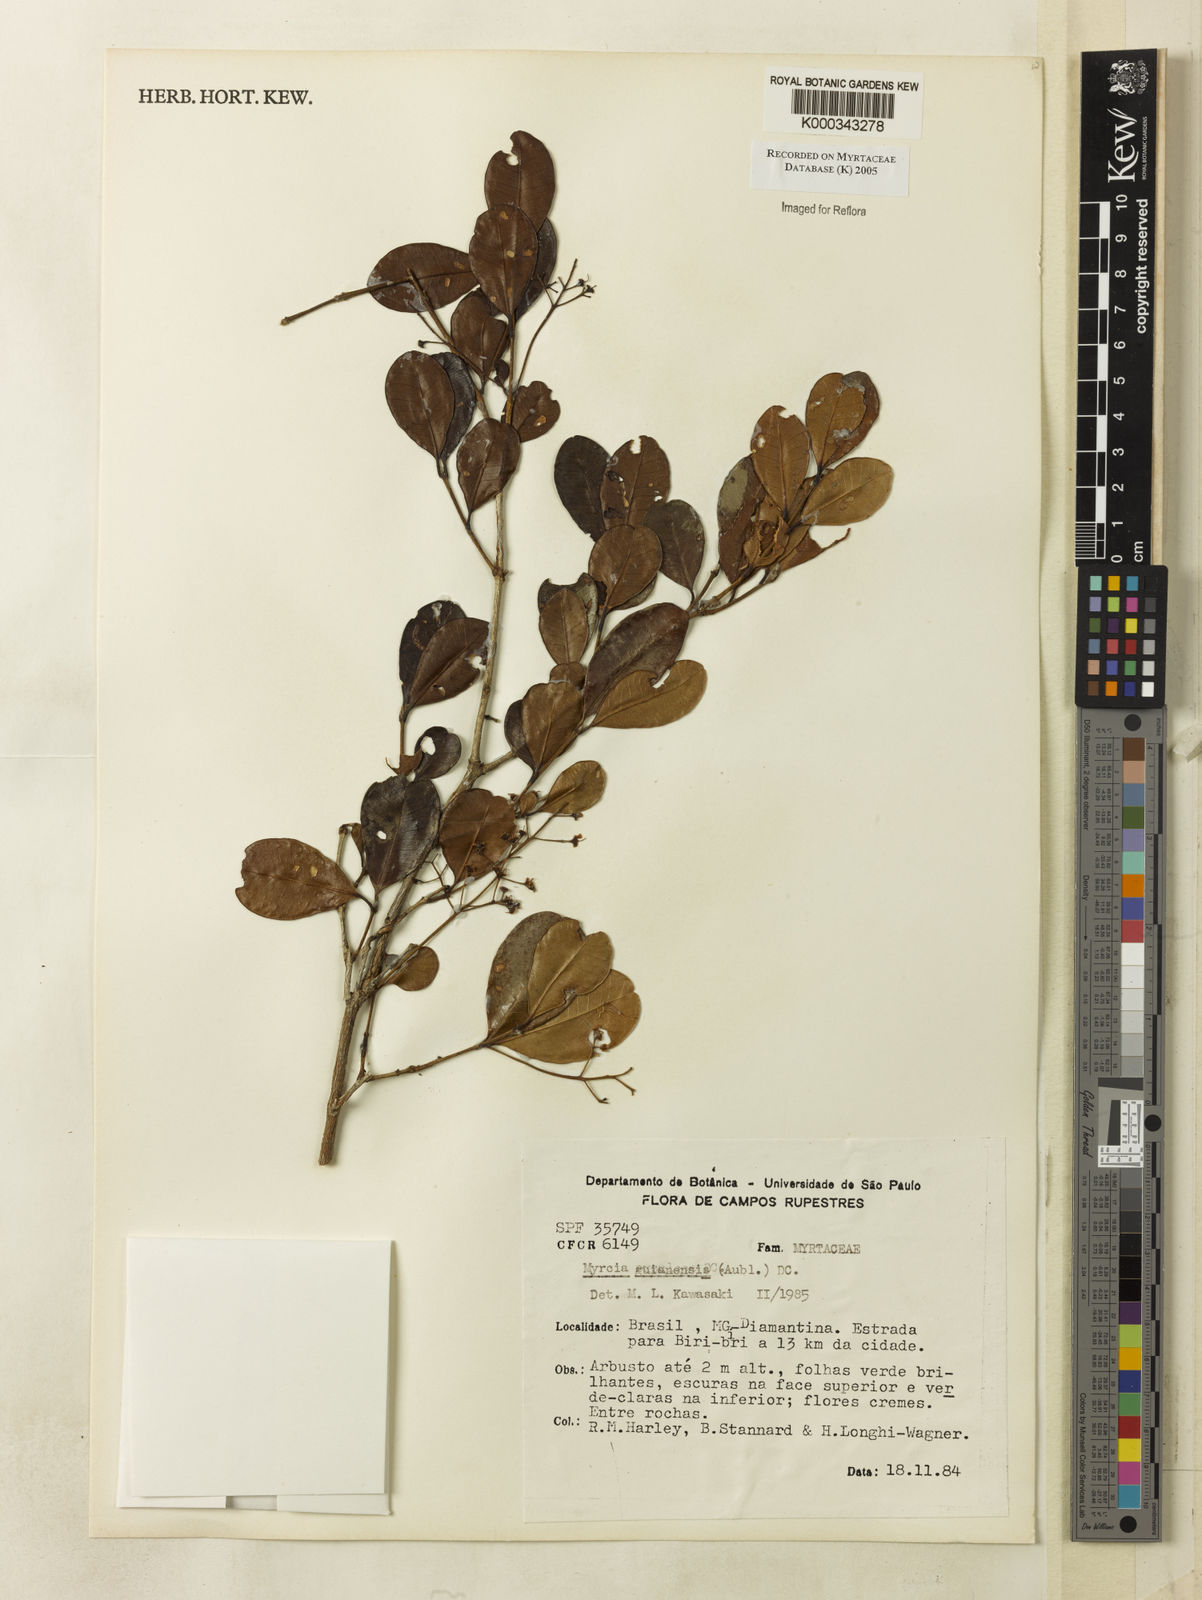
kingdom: Plantae
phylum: Tracheophyta
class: Magnoliopsida
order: Myrtales
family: Myrtaceae
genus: Myrcia
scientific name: Myrcia guianensis
